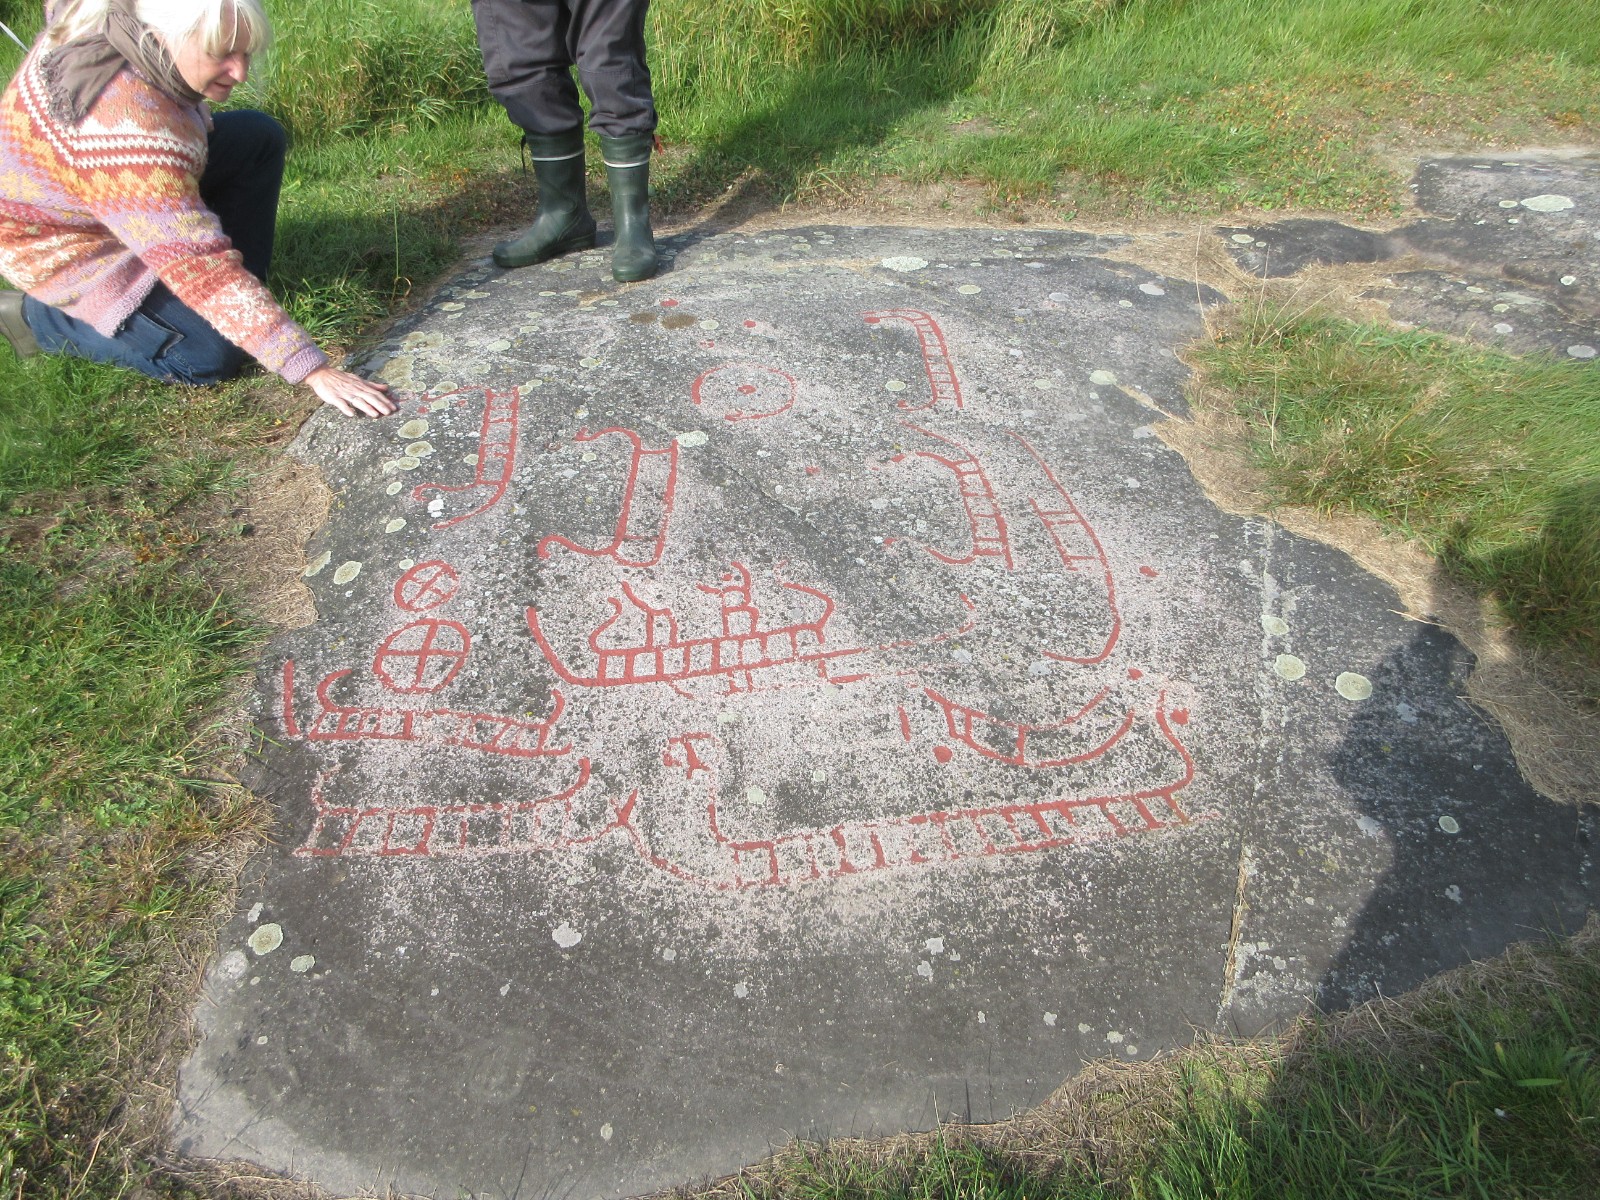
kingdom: Fungi
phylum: Basidiomycota
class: Agaricomycetes
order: Agaricales
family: Marasmiaceae
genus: Marasmius
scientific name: Marasmius oreades
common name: elledans-bruskhat
